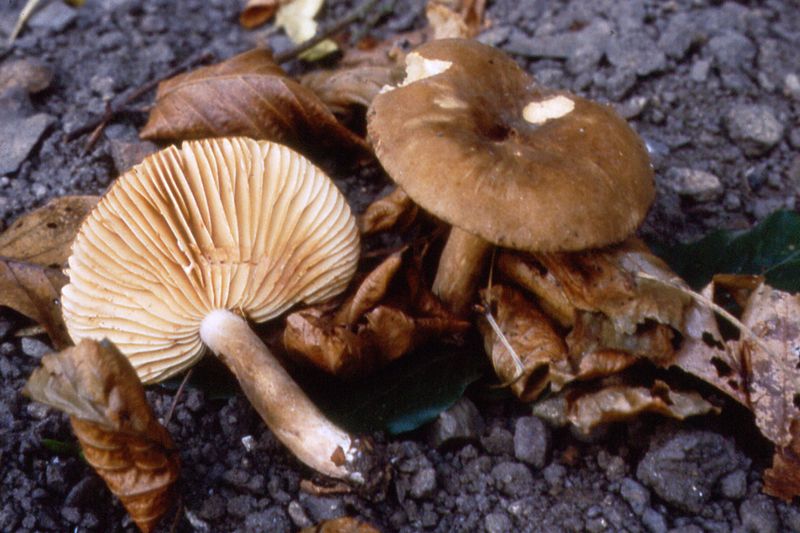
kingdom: Fungi
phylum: Basidiomycota
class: Agaricomycetes
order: Russulales
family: Russulaceae
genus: Lactarius
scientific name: Lactarius romagnesii
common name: fjernbladet mælkehat
